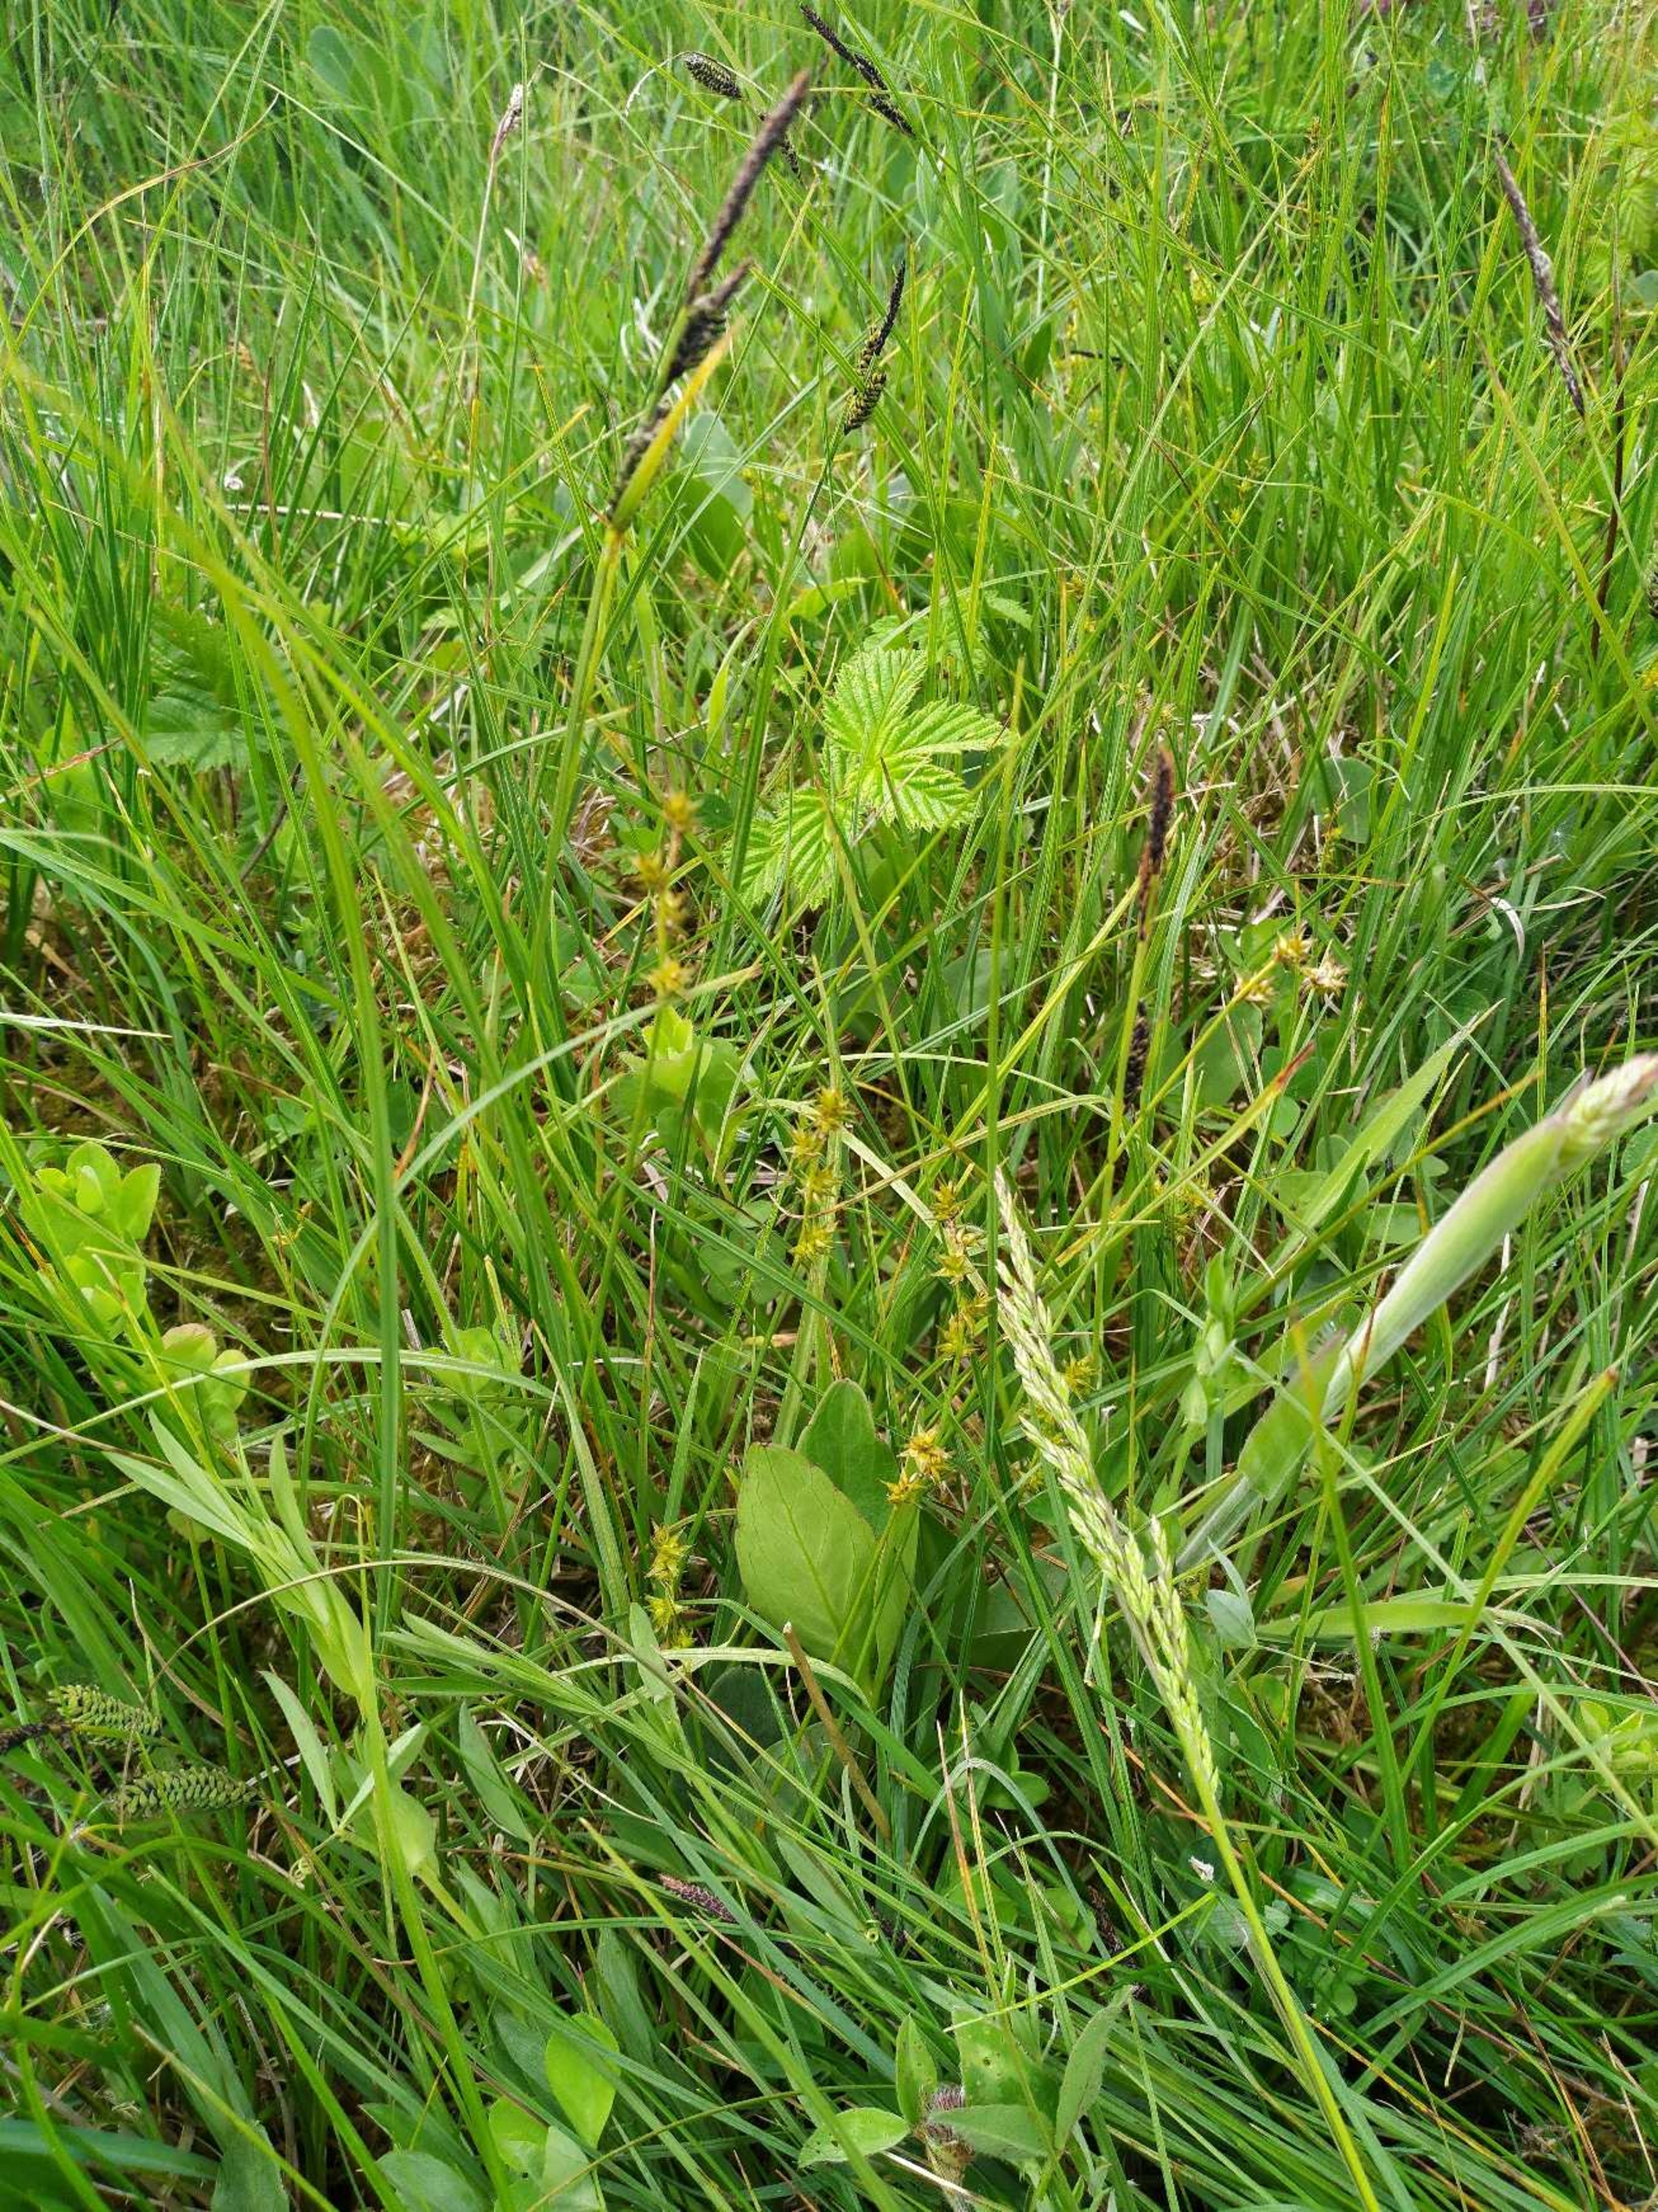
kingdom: Plantae
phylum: Tracheophyta
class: Liliopsida
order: Poales
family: Cyperaceae
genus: Carex
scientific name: Carex echinata
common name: Stjerne-star
